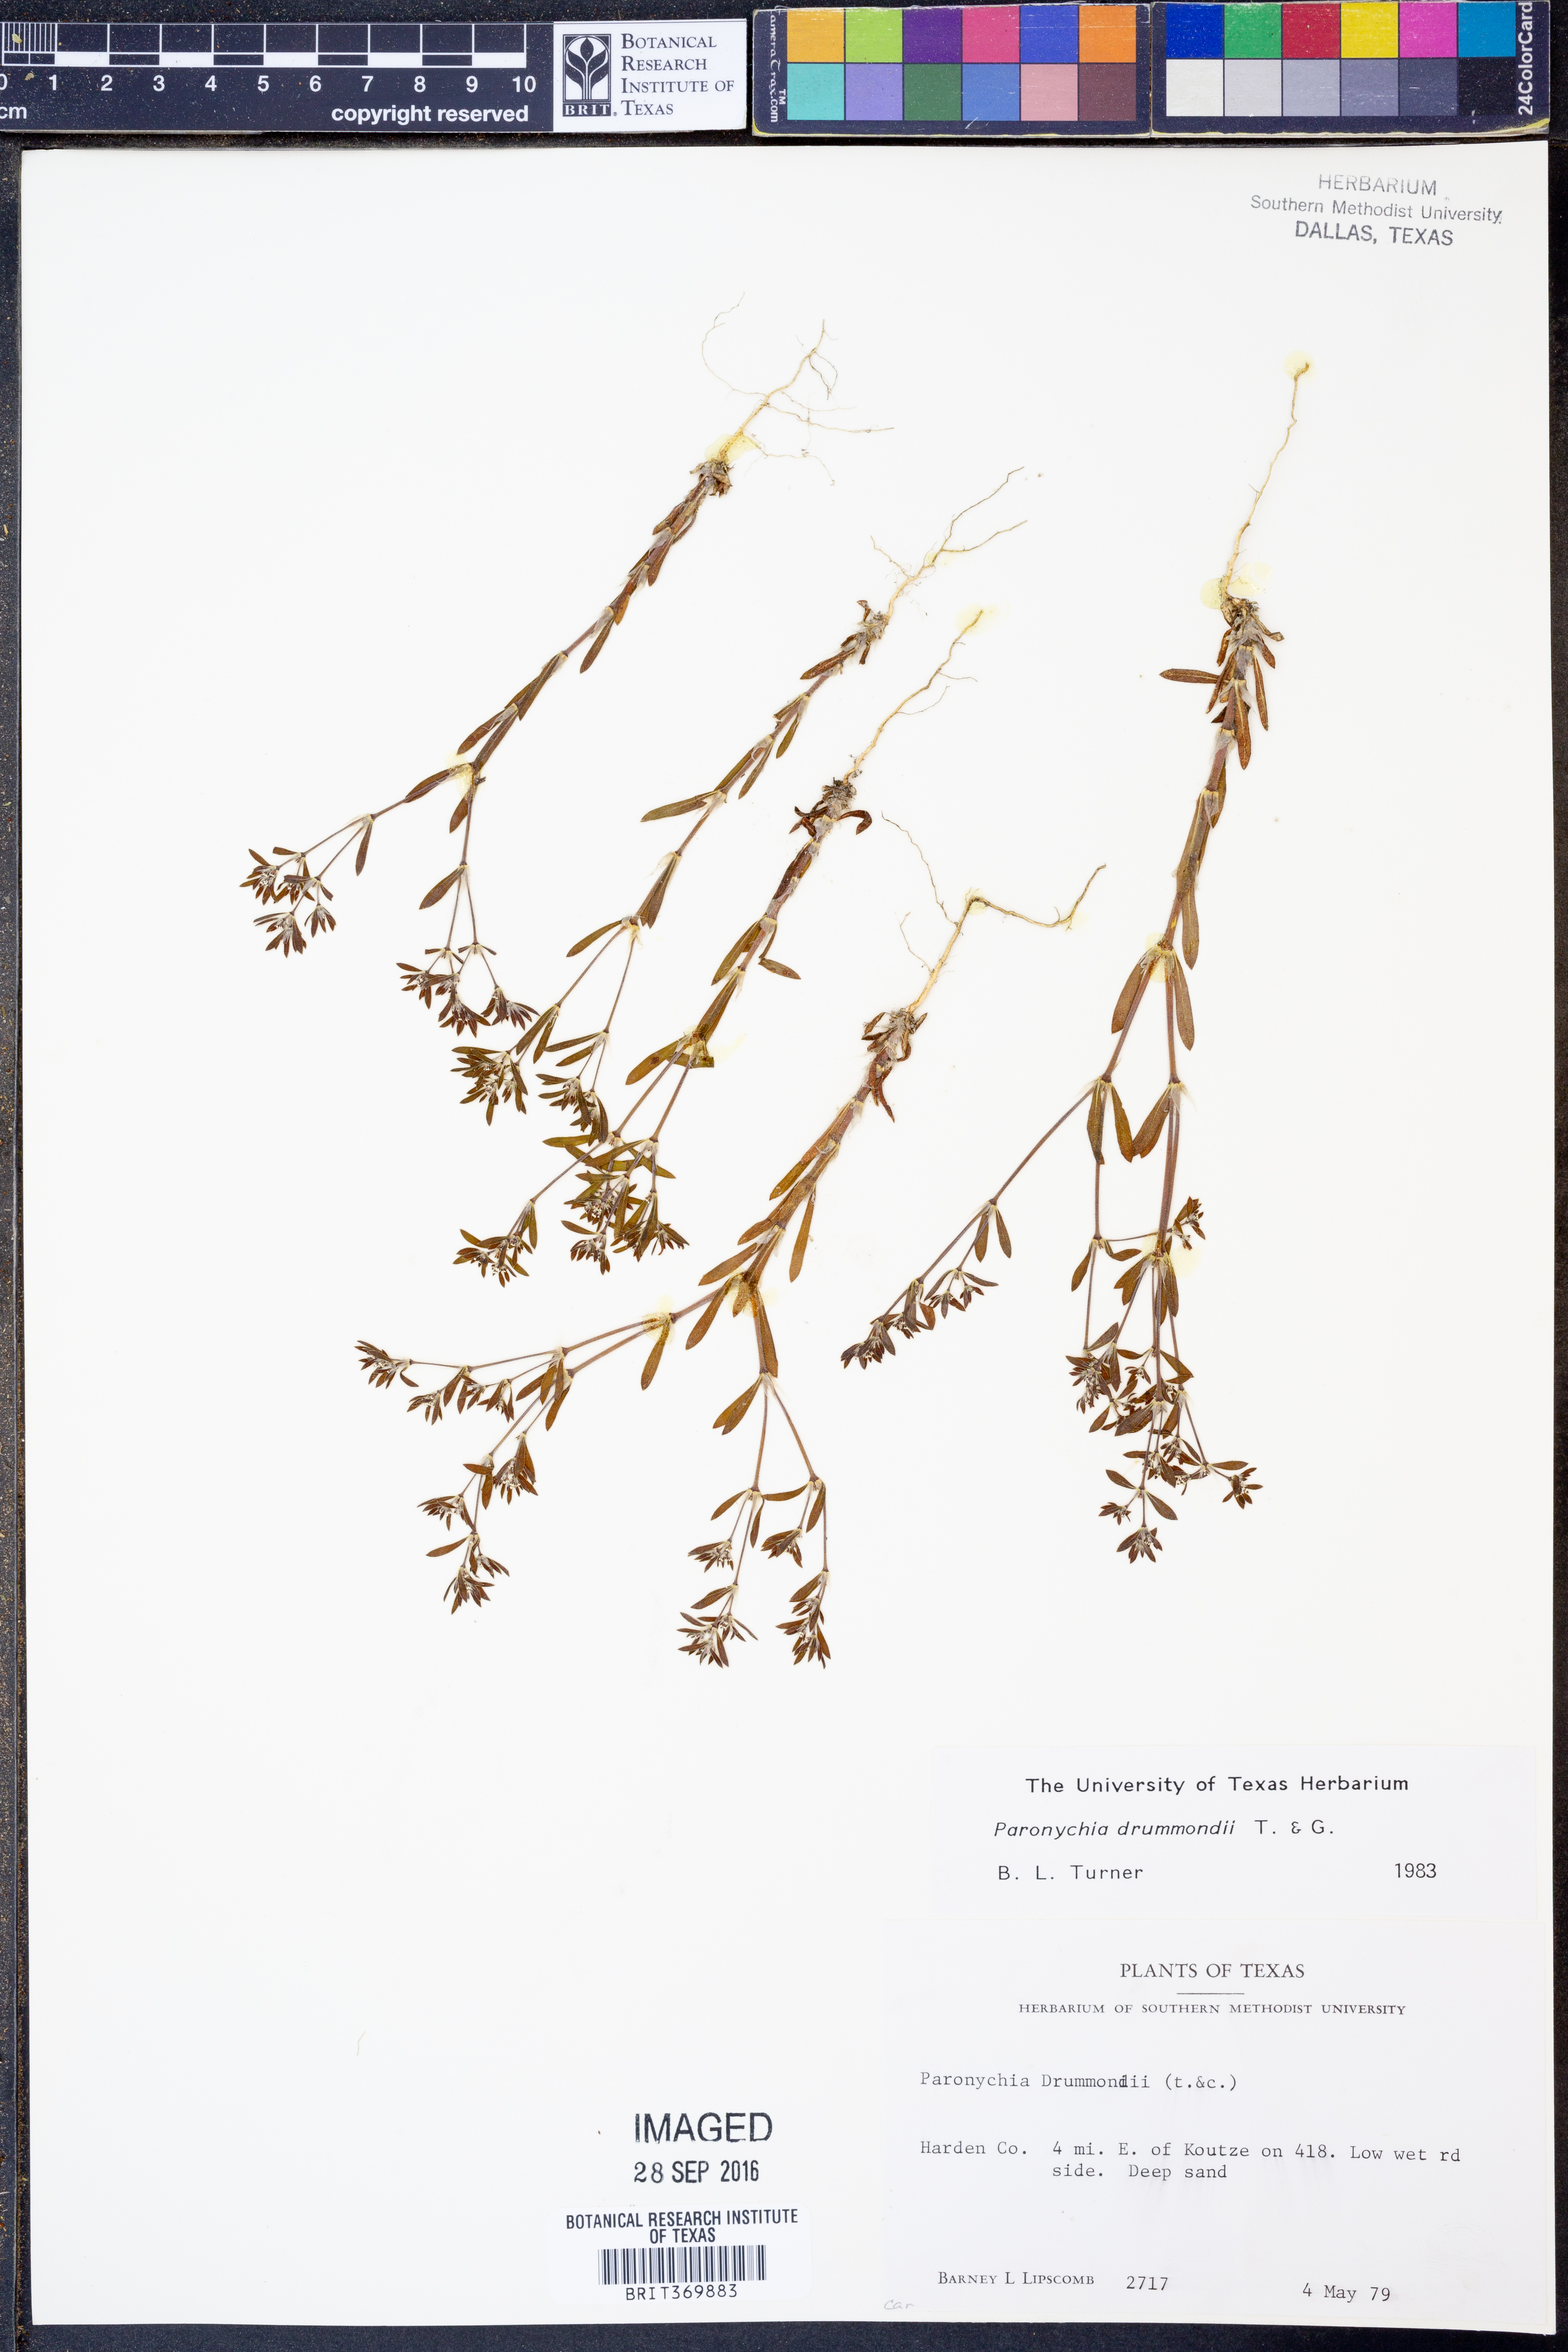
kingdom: Plantae
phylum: Tracheophyta
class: Magnoliopsida
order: Caryophyllales
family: Caryophyllaceae
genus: Paronychia
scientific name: Paronychia drummondii
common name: Drummond's nailwort
